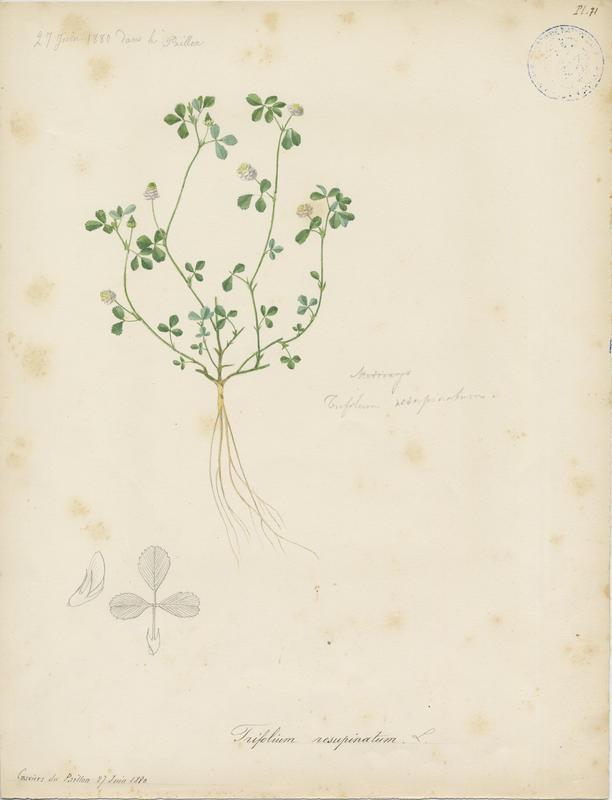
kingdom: Plantae
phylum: Tracheophyta
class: Magnoliopsida
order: Fabales
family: Fabaceae
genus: Trifolium
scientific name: Trifolium resupinatum
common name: Reversed clover
